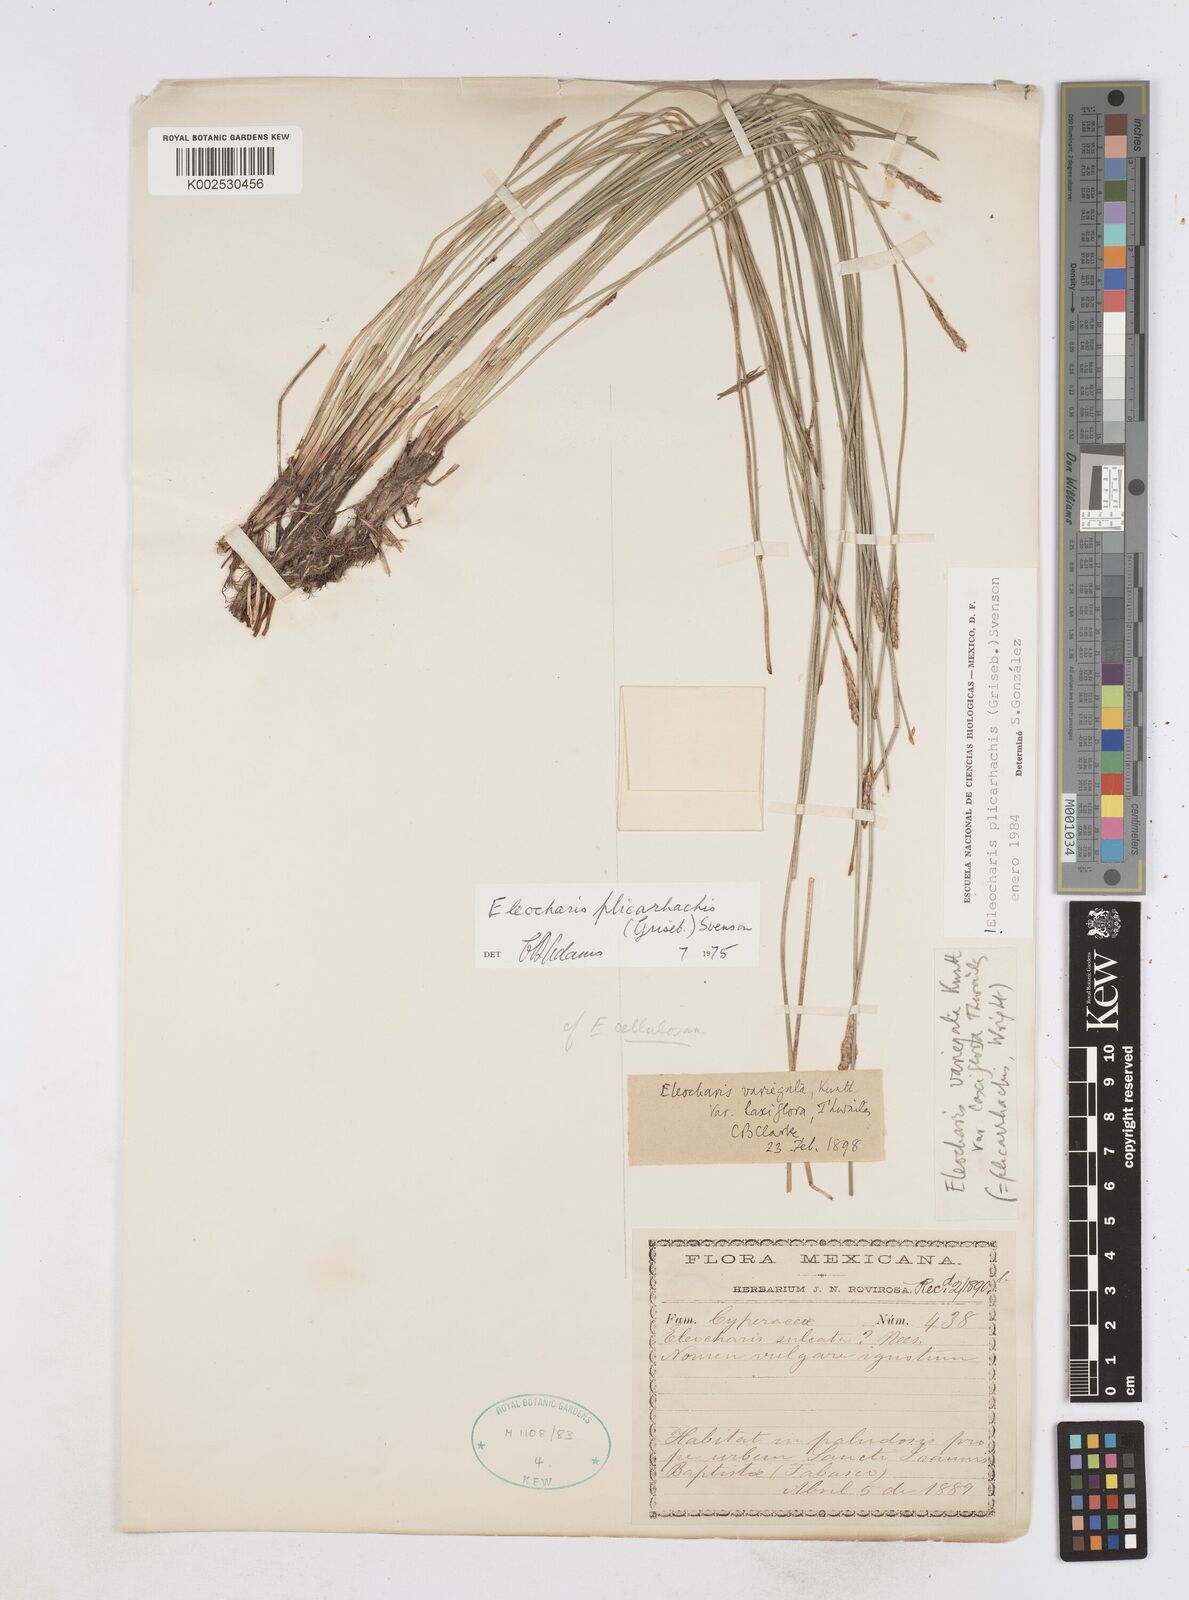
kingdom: Plantae
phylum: Tracheophyta
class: Liliopsida
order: Poales
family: Cyperaceae
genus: Eleocharis
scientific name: Eleocharis plicarhachis
